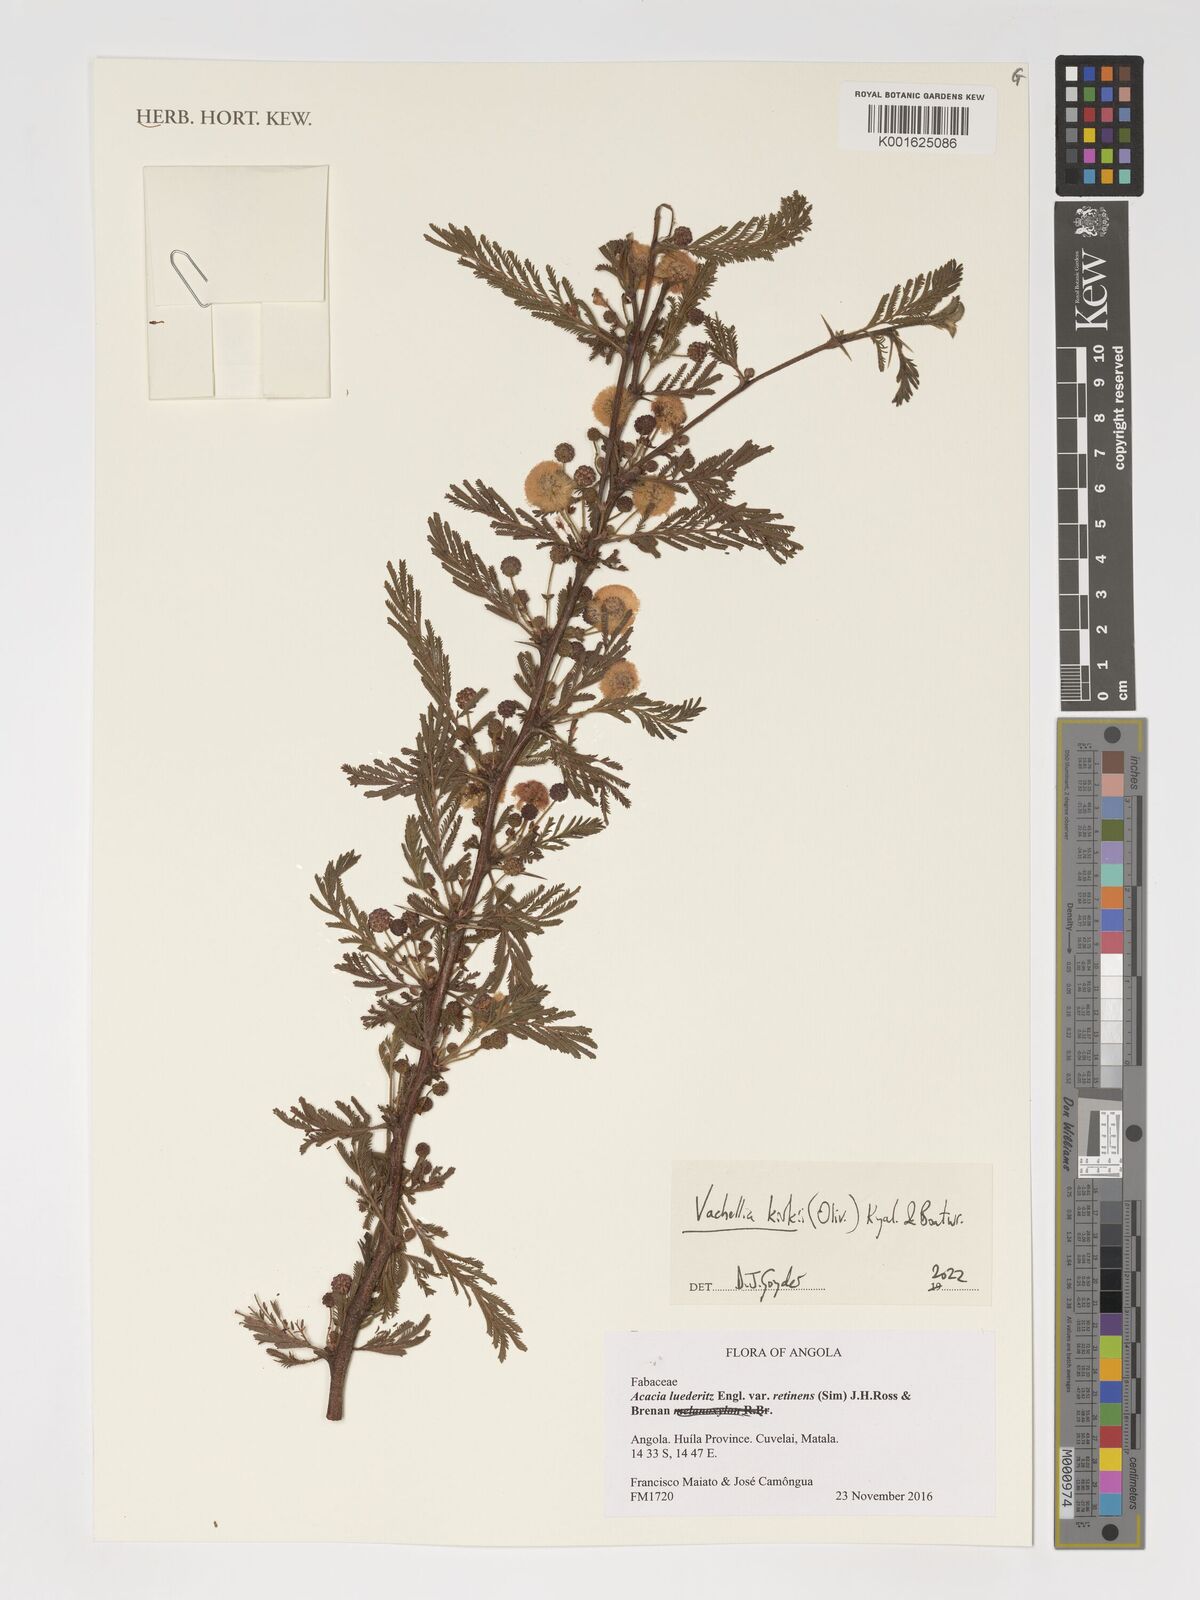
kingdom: Plantae
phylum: Tracheophyta
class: Magnoliopsida
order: Fabales
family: Fabaceae
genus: Vachellia
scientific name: Vachellia kirkii
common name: Flood-plain acacia
